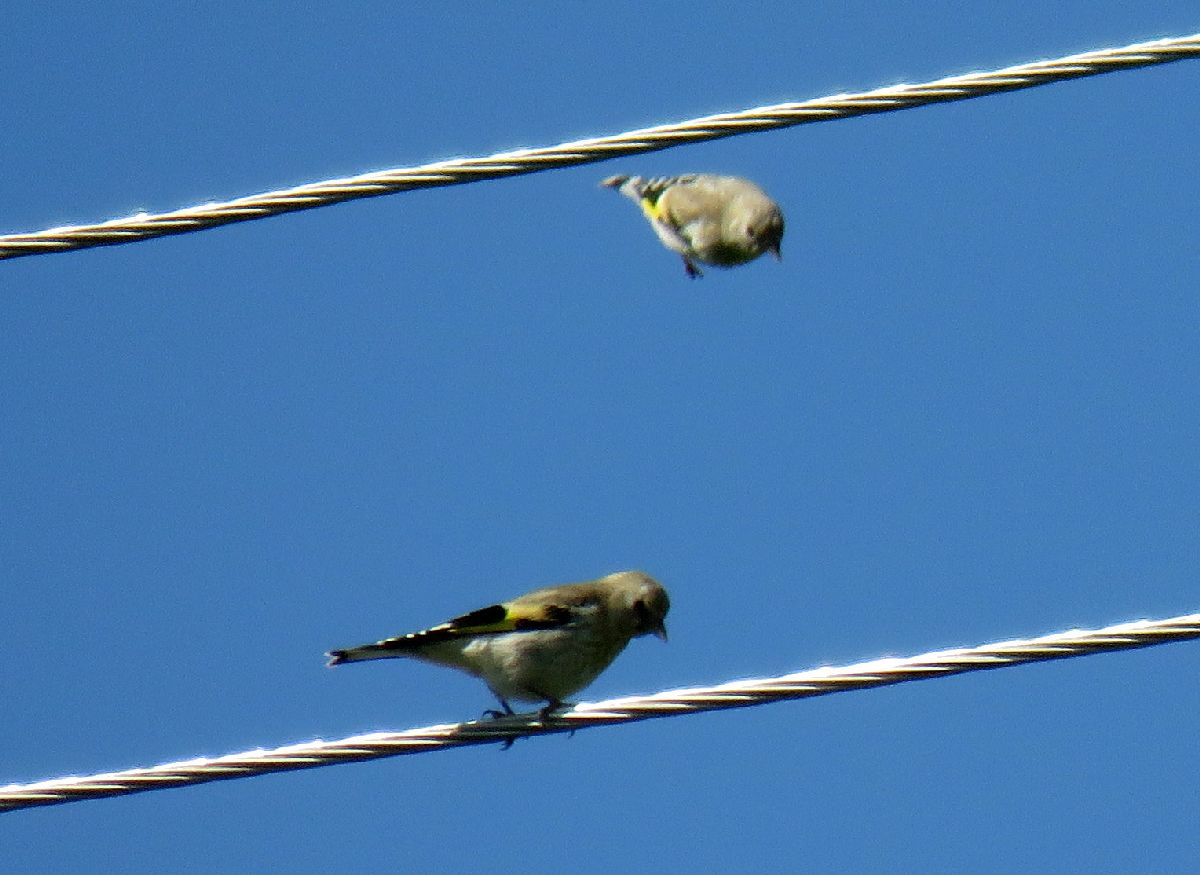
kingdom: Animalia
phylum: Chordata
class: Aves
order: Passeriformes
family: Fringillidae
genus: Carduelis
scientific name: Carduelis carduelis
